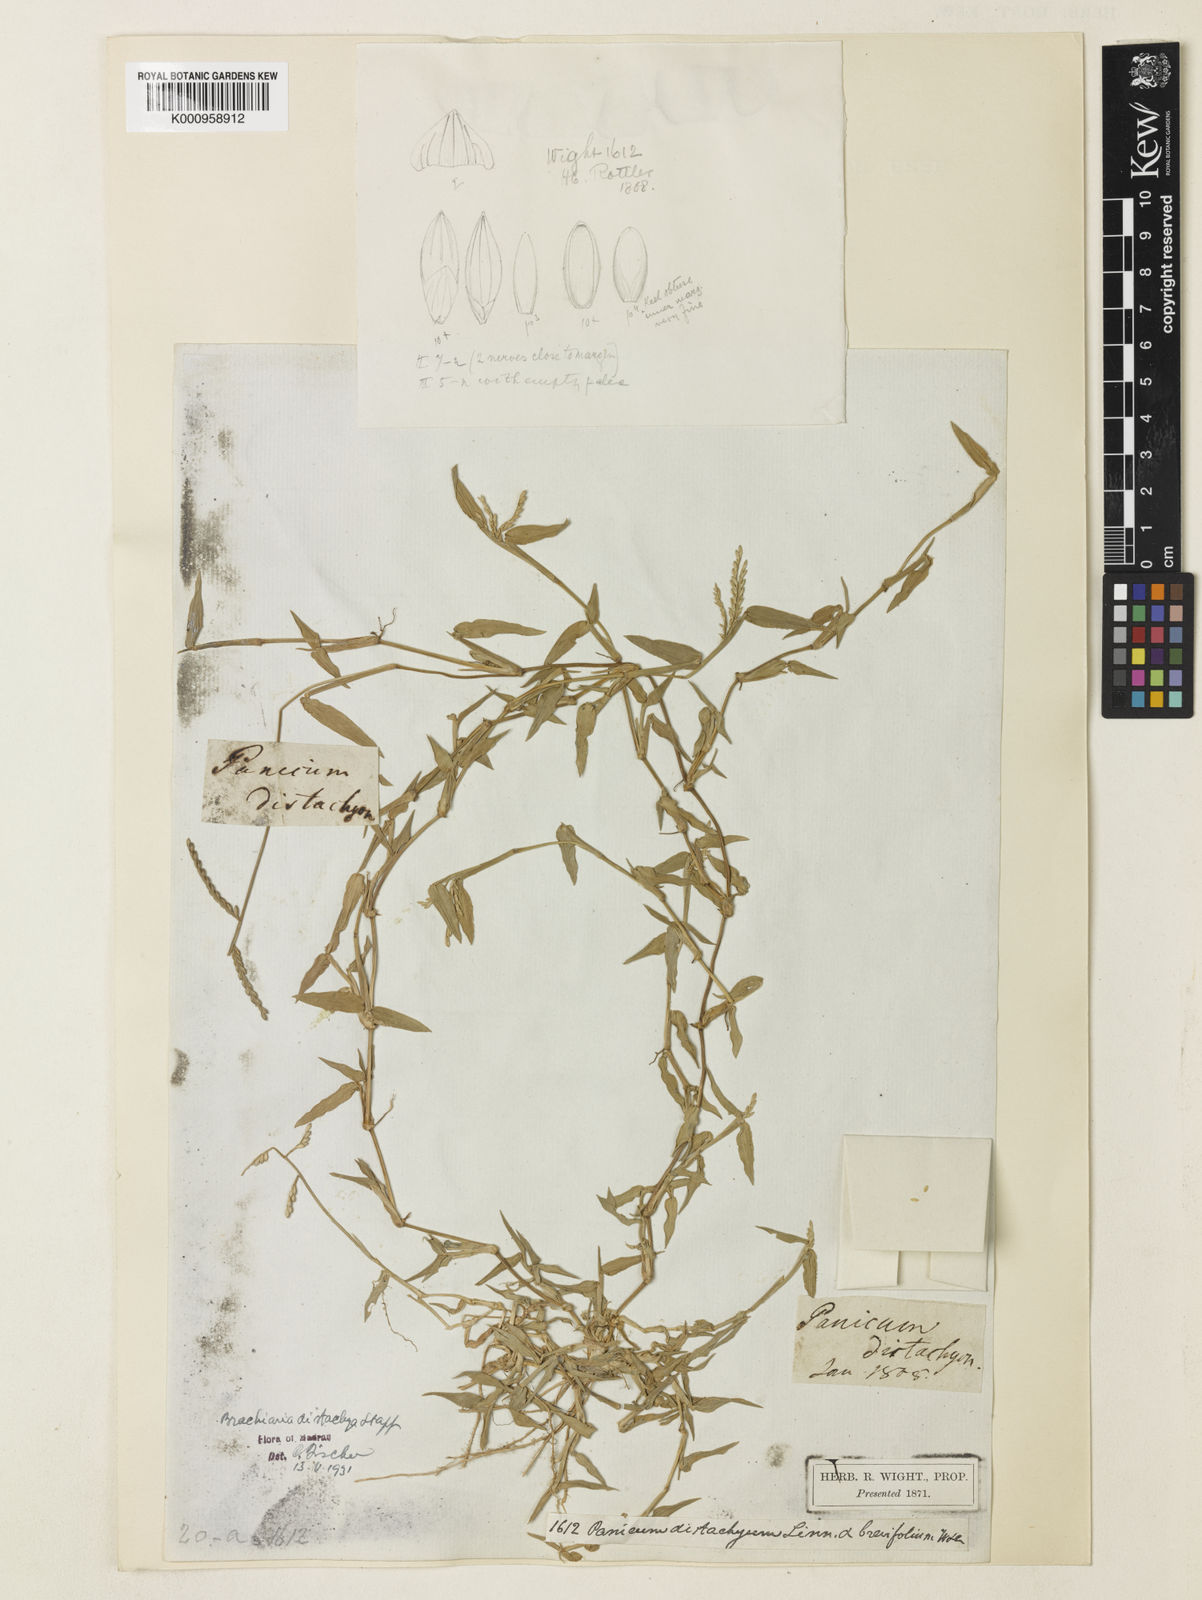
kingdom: Plantae
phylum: Tracheophyta
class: Liliopsida
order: Poales
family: Poaceae
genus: Urochloa
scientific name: Urochloa distachyos
